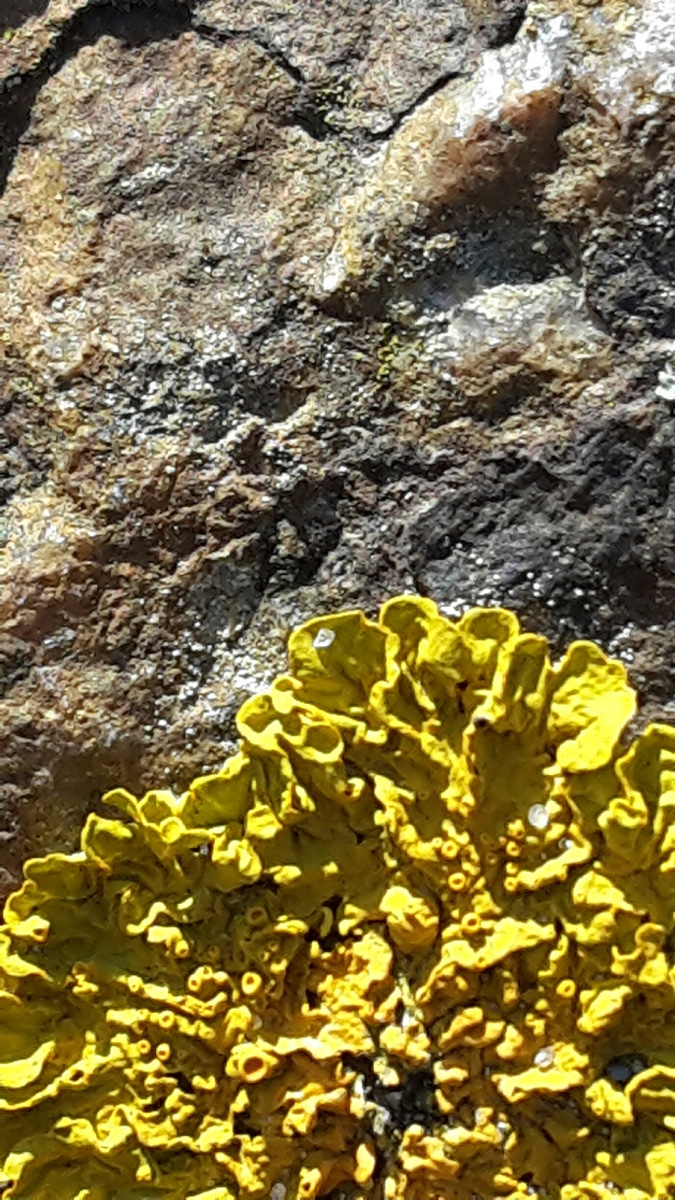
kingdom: Fungi
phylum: Ascomycota
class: Lecanoromycetes
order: Teloschistales
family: Teloschistaceae
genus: Xanthoria
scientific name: Xanthoria parietina
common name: almindelig væggelav
